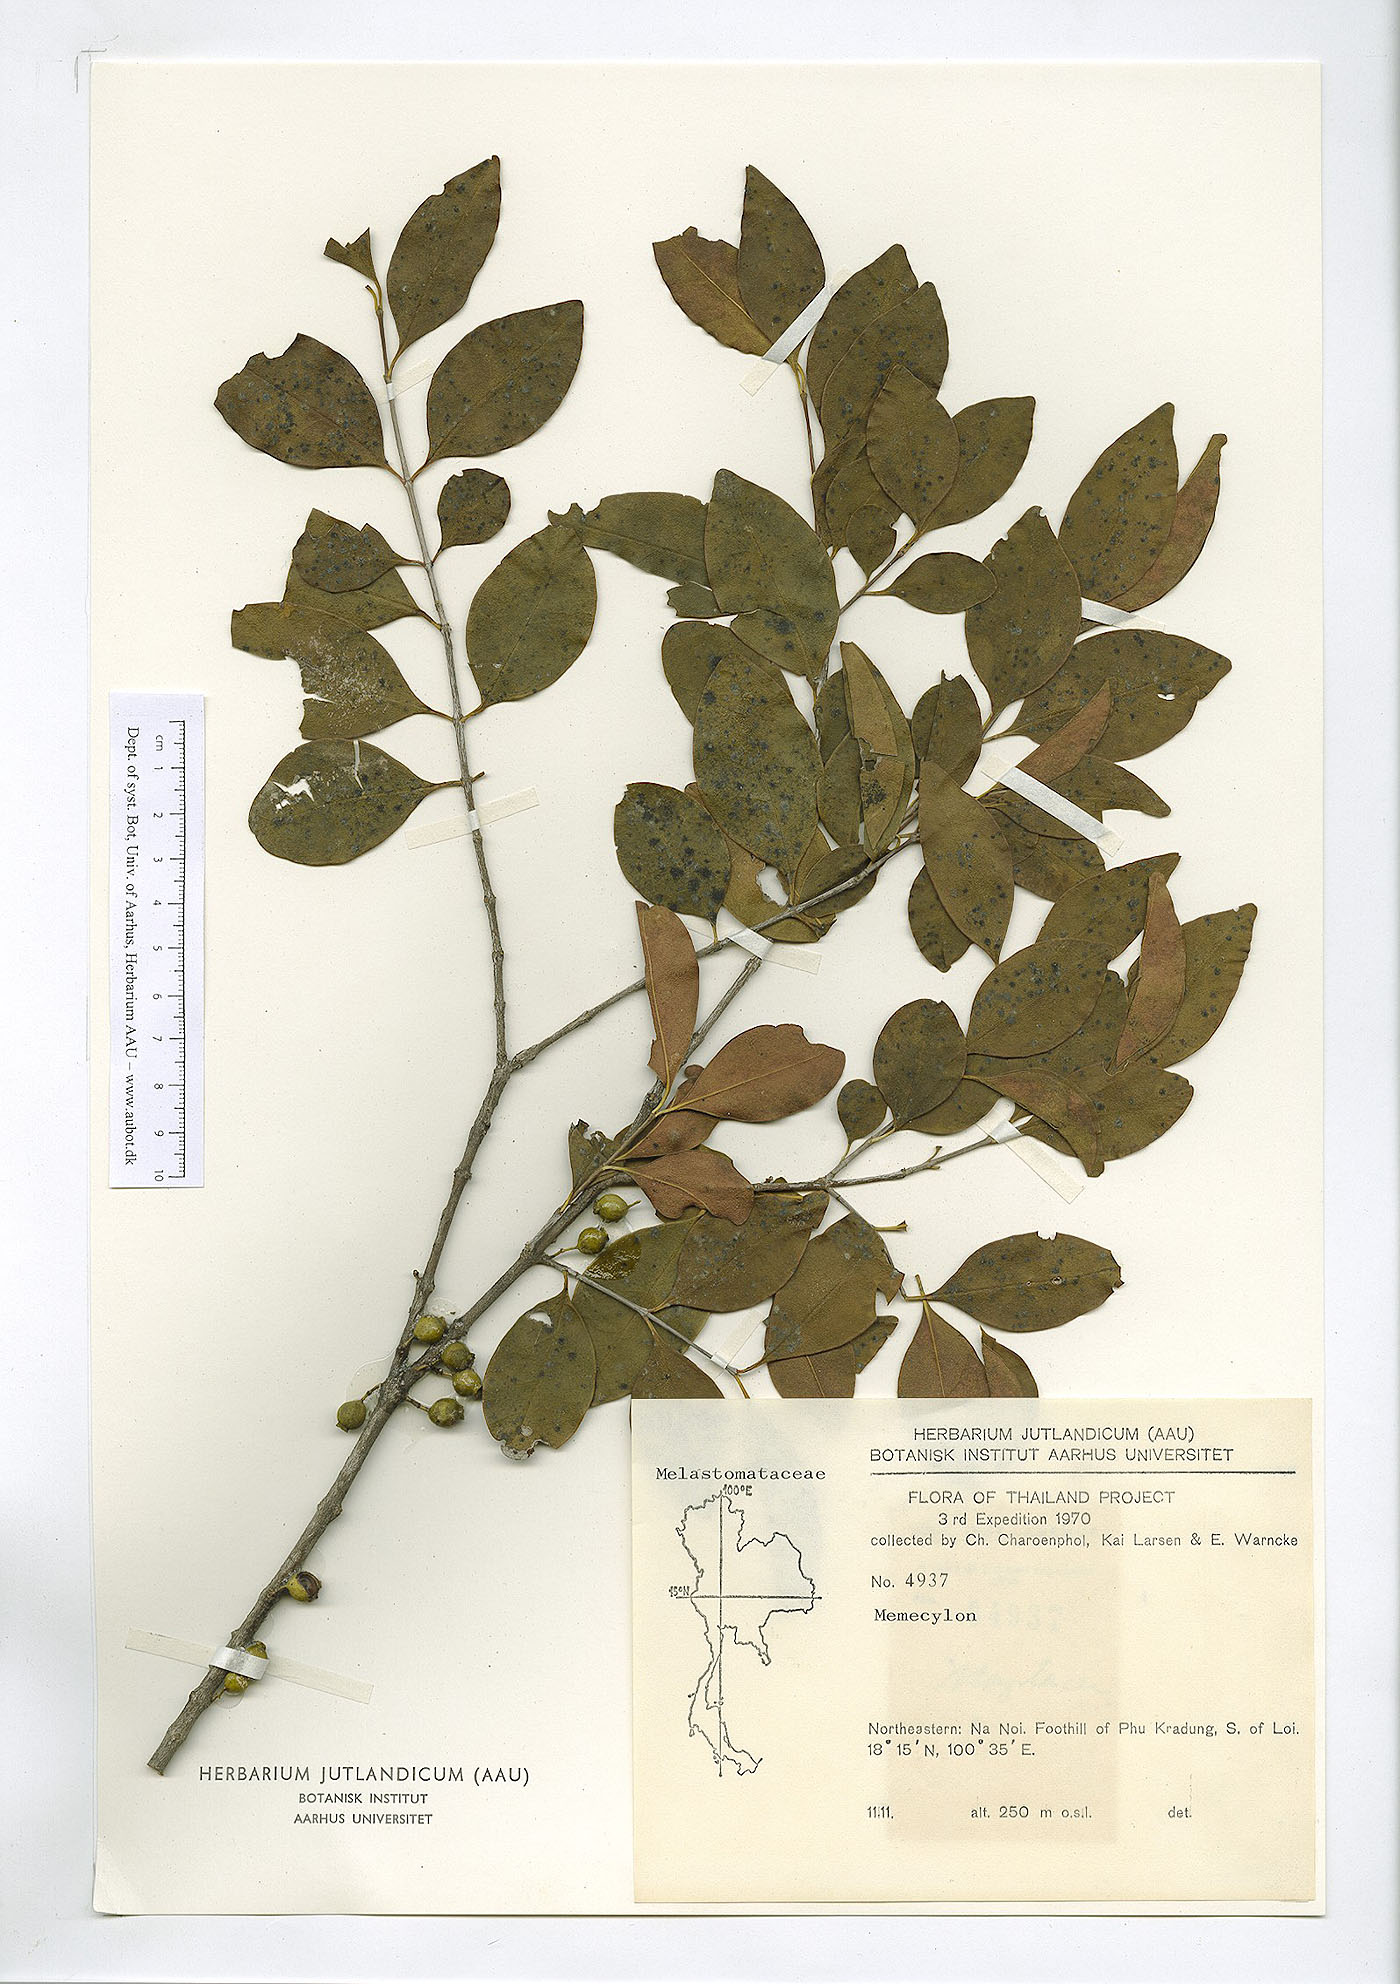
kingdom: Plantae
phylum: Tracheophyta
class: Magnoliopsida
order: Myrtales
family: Melastomataceae
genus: Memecylon
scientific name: Memecylon scutellatum
